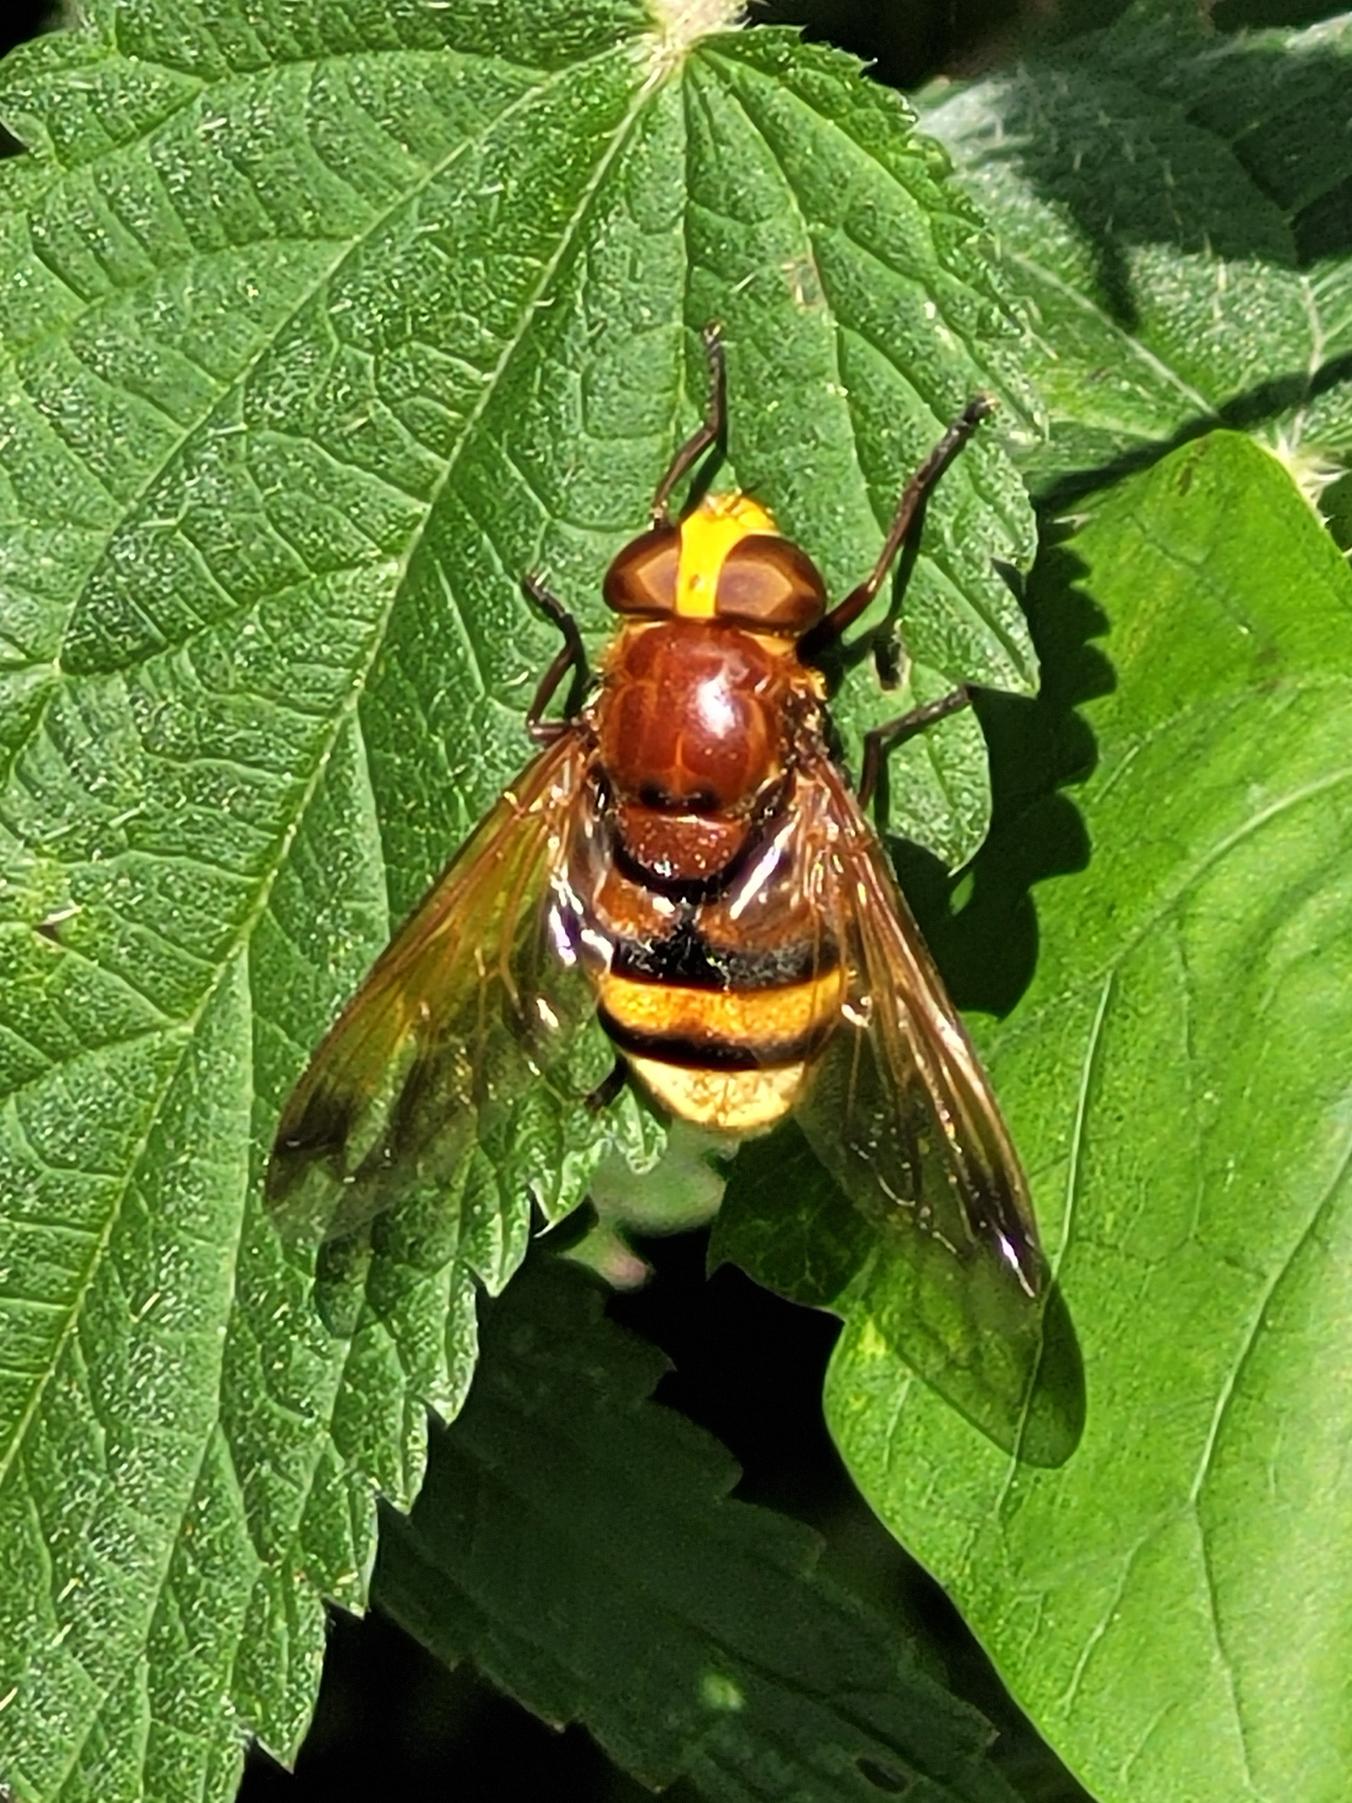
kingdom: Animalia
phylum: Arthropoda
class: Insecta
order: Diptera
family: Syrphidae
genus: Volucella
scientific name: Volucella zonaria
